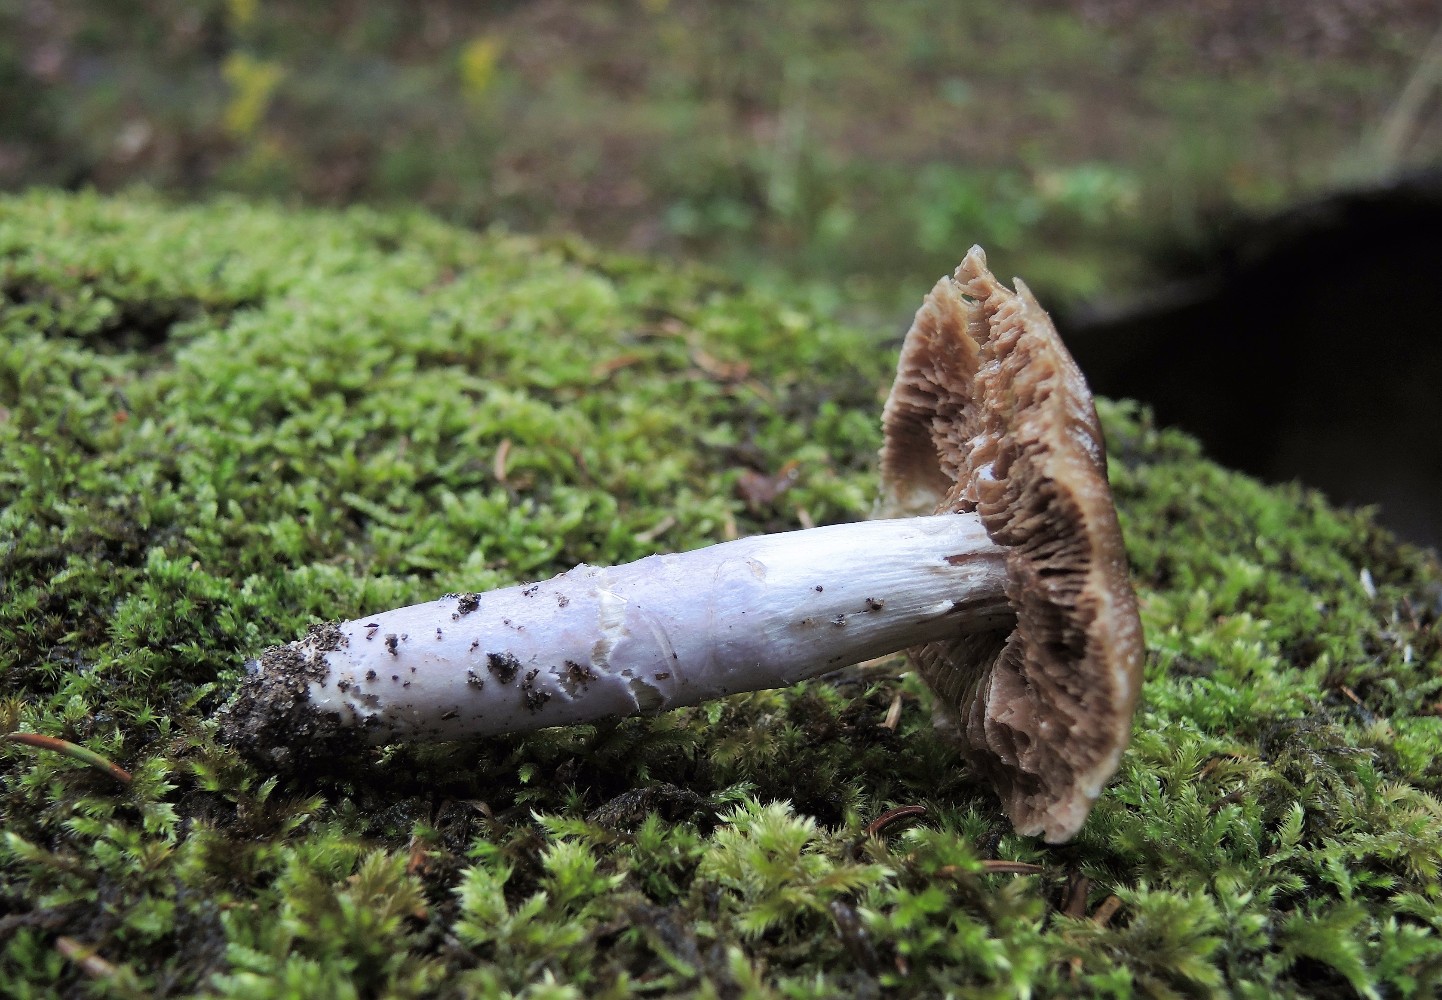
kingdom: Fungi
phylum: Basidiomycota
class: Agaricomycetes
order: Agaricales
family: Cortinariaceae
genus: Cortinarius
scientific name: Cortinarius elatior
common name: høj slørhat
